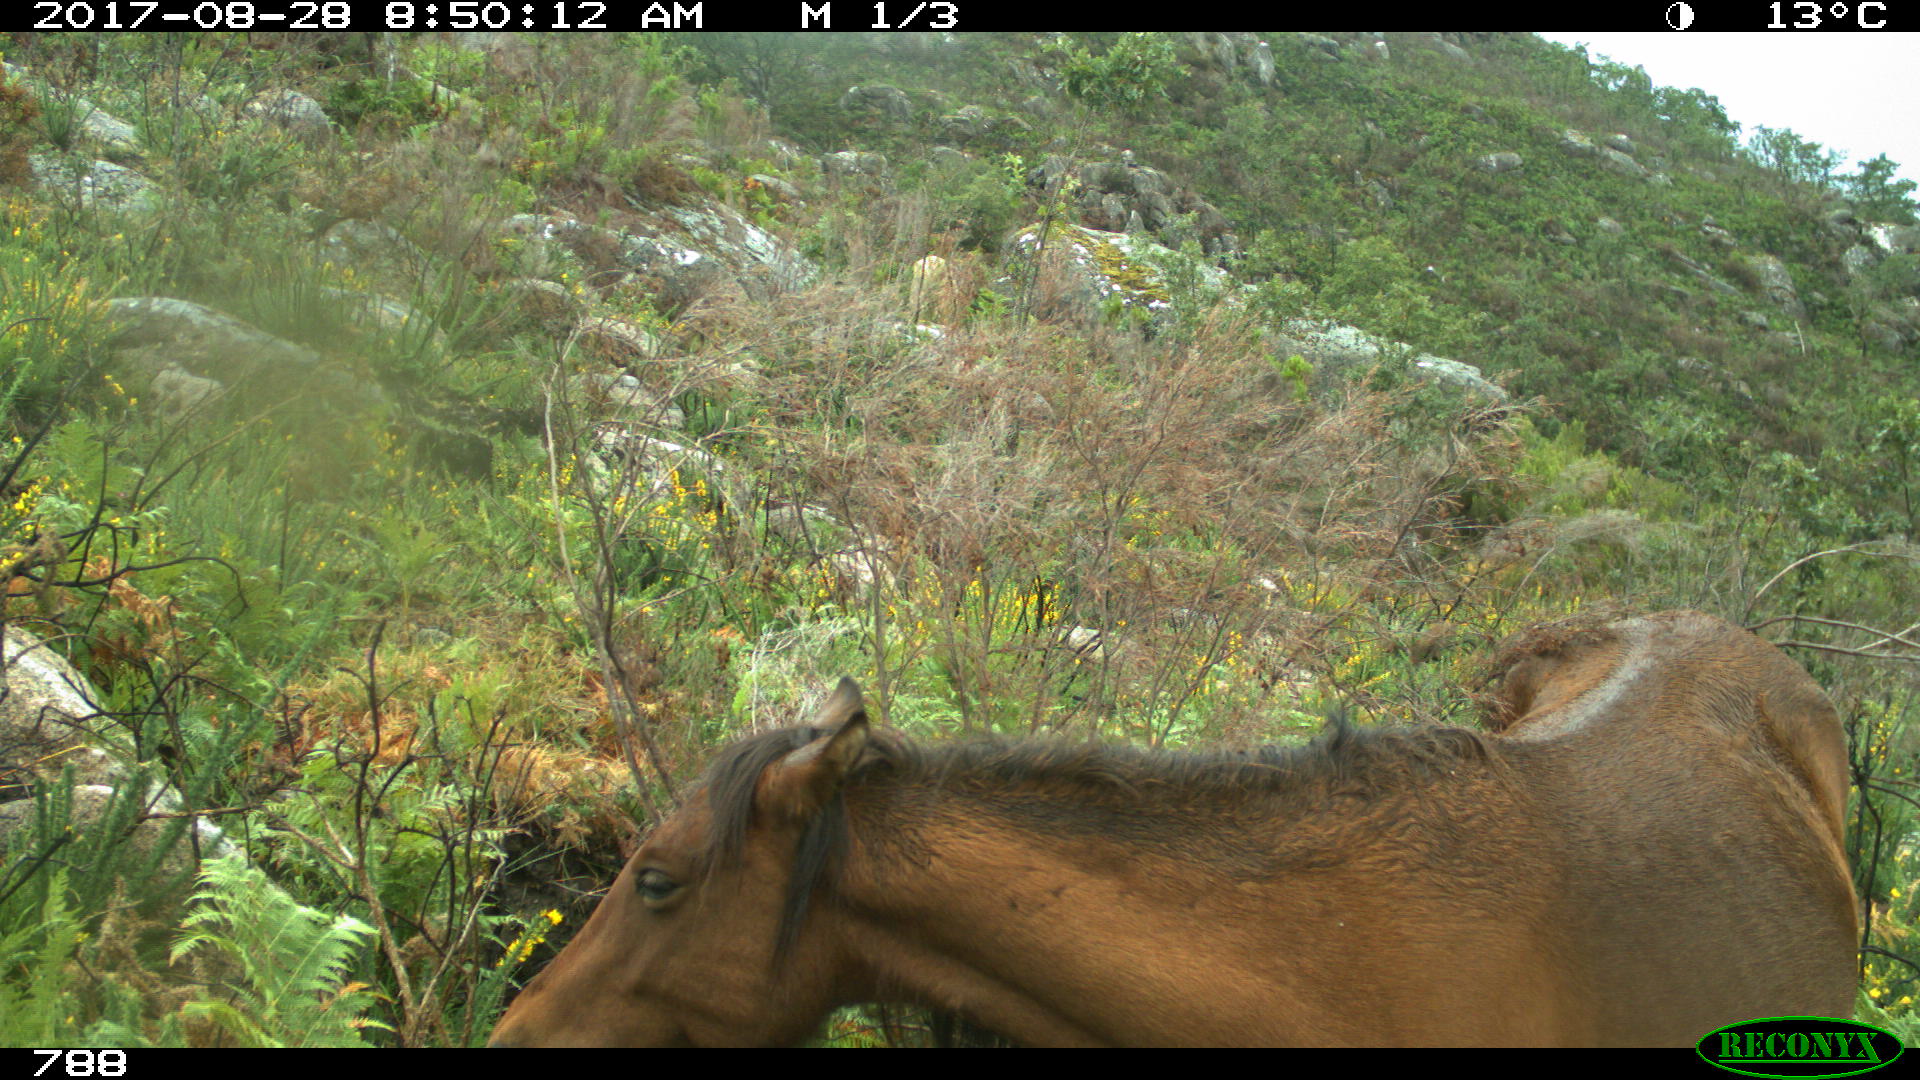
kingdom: Animalia
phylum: Chordata
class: Mammalia
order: Perissodactyla
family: Equidae
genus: Equus
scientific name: Equus caballus
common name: Horse
